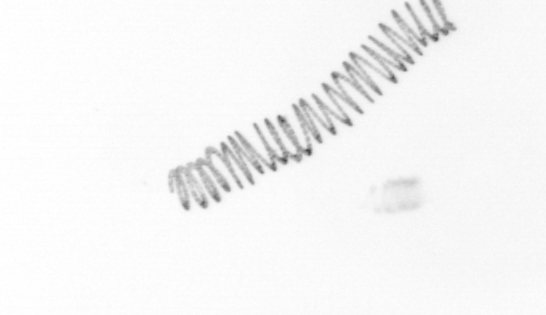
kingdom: Chromista
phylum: Ochrophyta
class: Bacillariophyceae
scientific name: Bacillariophyceae
